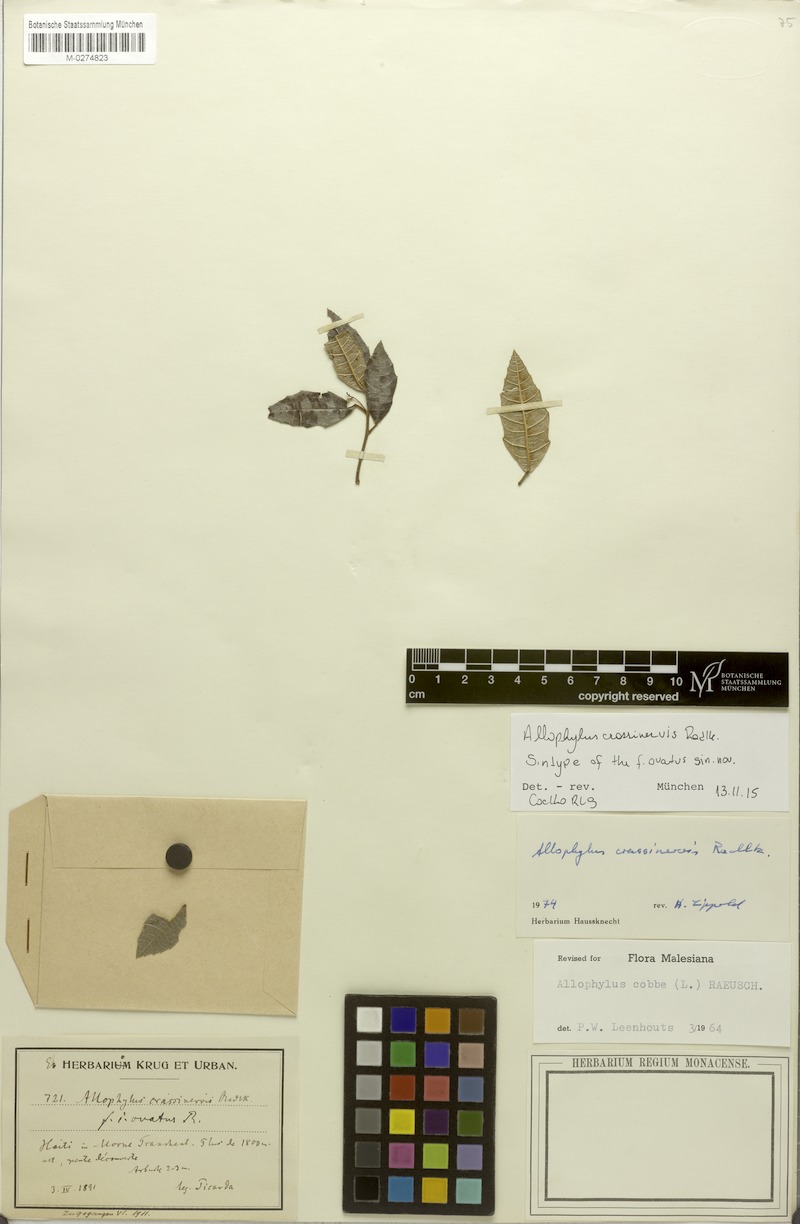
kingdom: Plantae
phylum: Tracheophyta
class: Magnoliopsida
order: Sapindales
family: Sapindaceae
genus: Allophylus
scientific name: Allophylus crassinervis
